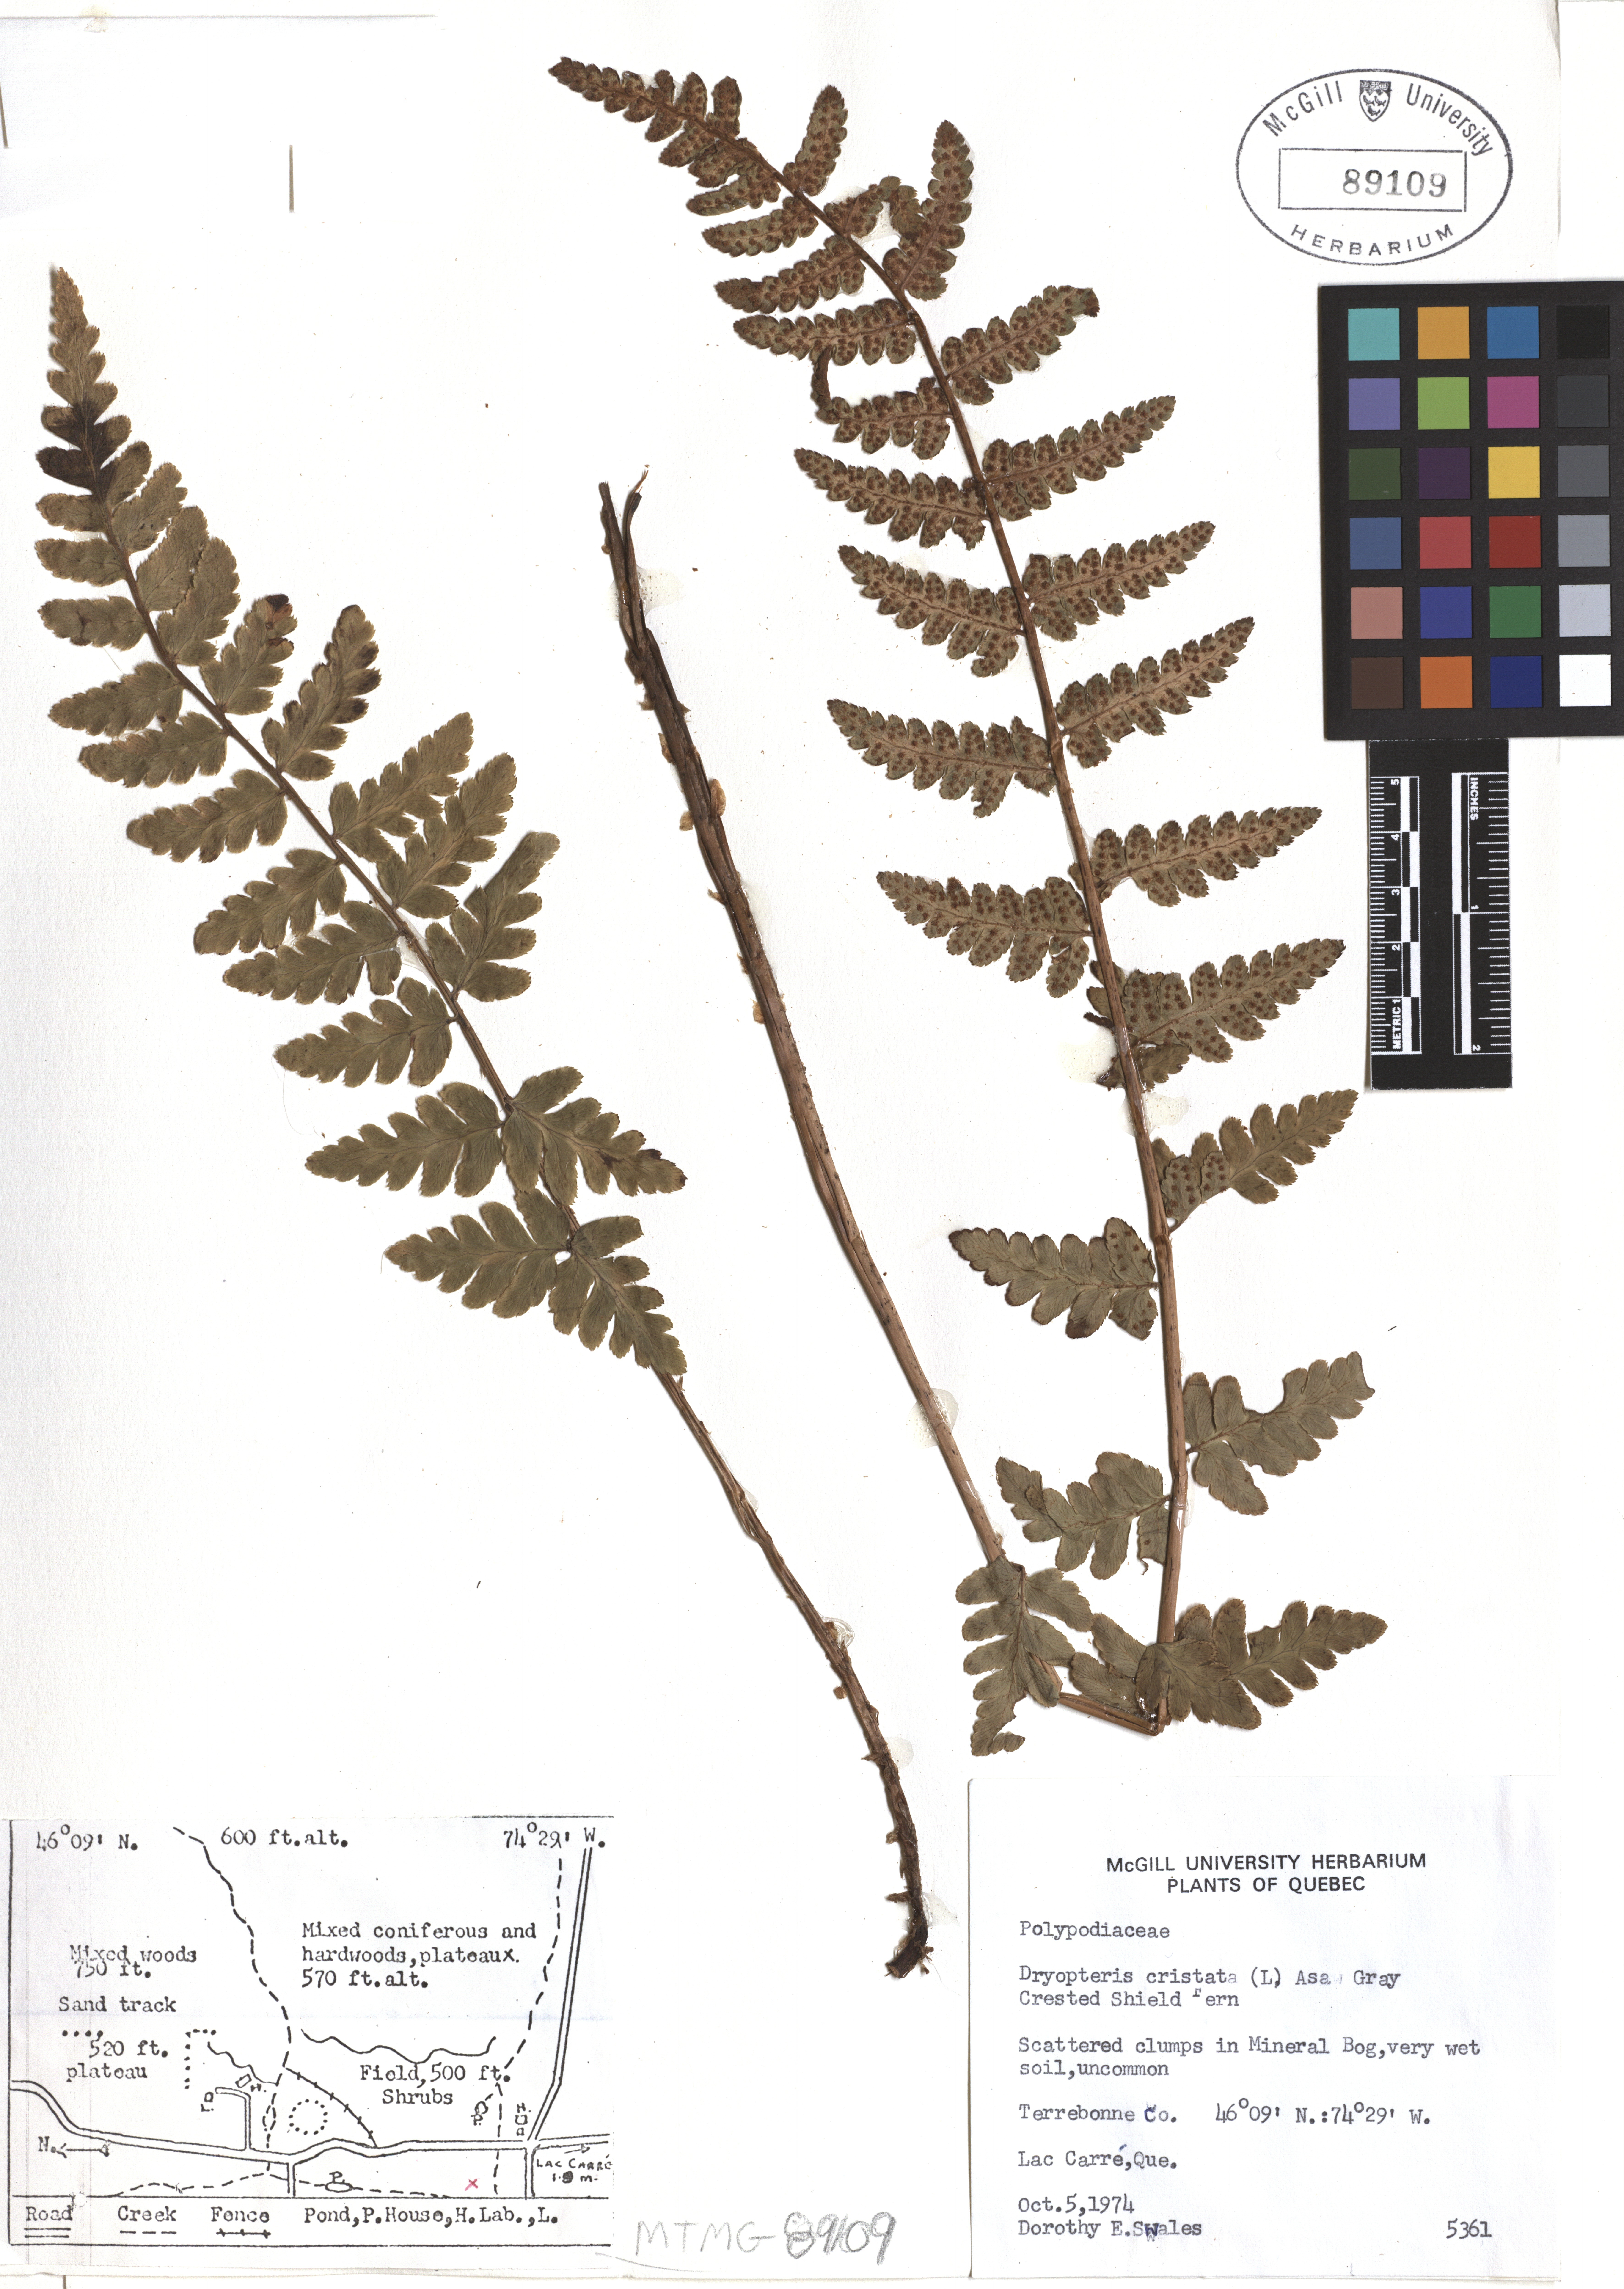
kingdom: Plantae
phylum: Tracheophyta
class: Polypodiopsida
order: Polypodiales
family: Dryopteridaceae
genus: Dryopteris
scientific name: Dryopteris cristata
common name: Crested wood fern
